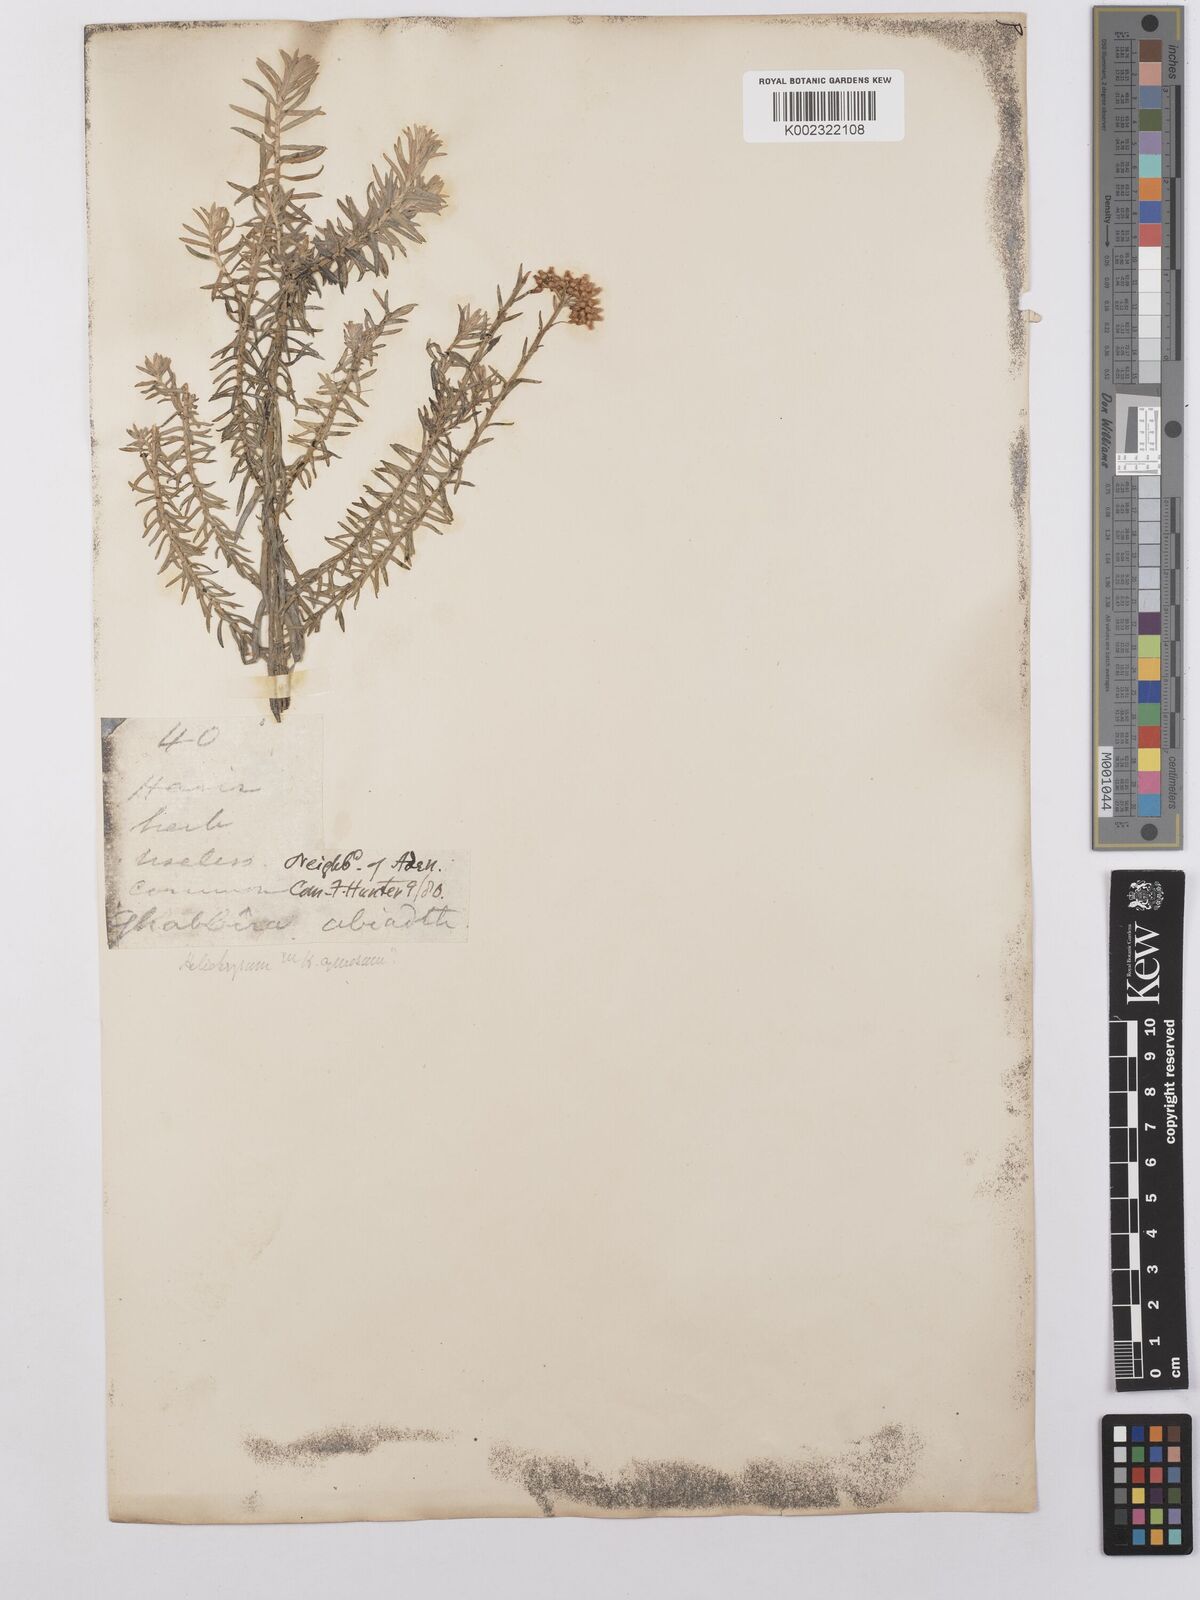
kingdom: Plantae
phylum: Tracheophyta
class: Magnoliopsida
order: Asterales
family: Asteraceae
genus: Helichrysum
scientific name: Helichrysum forskahlii
